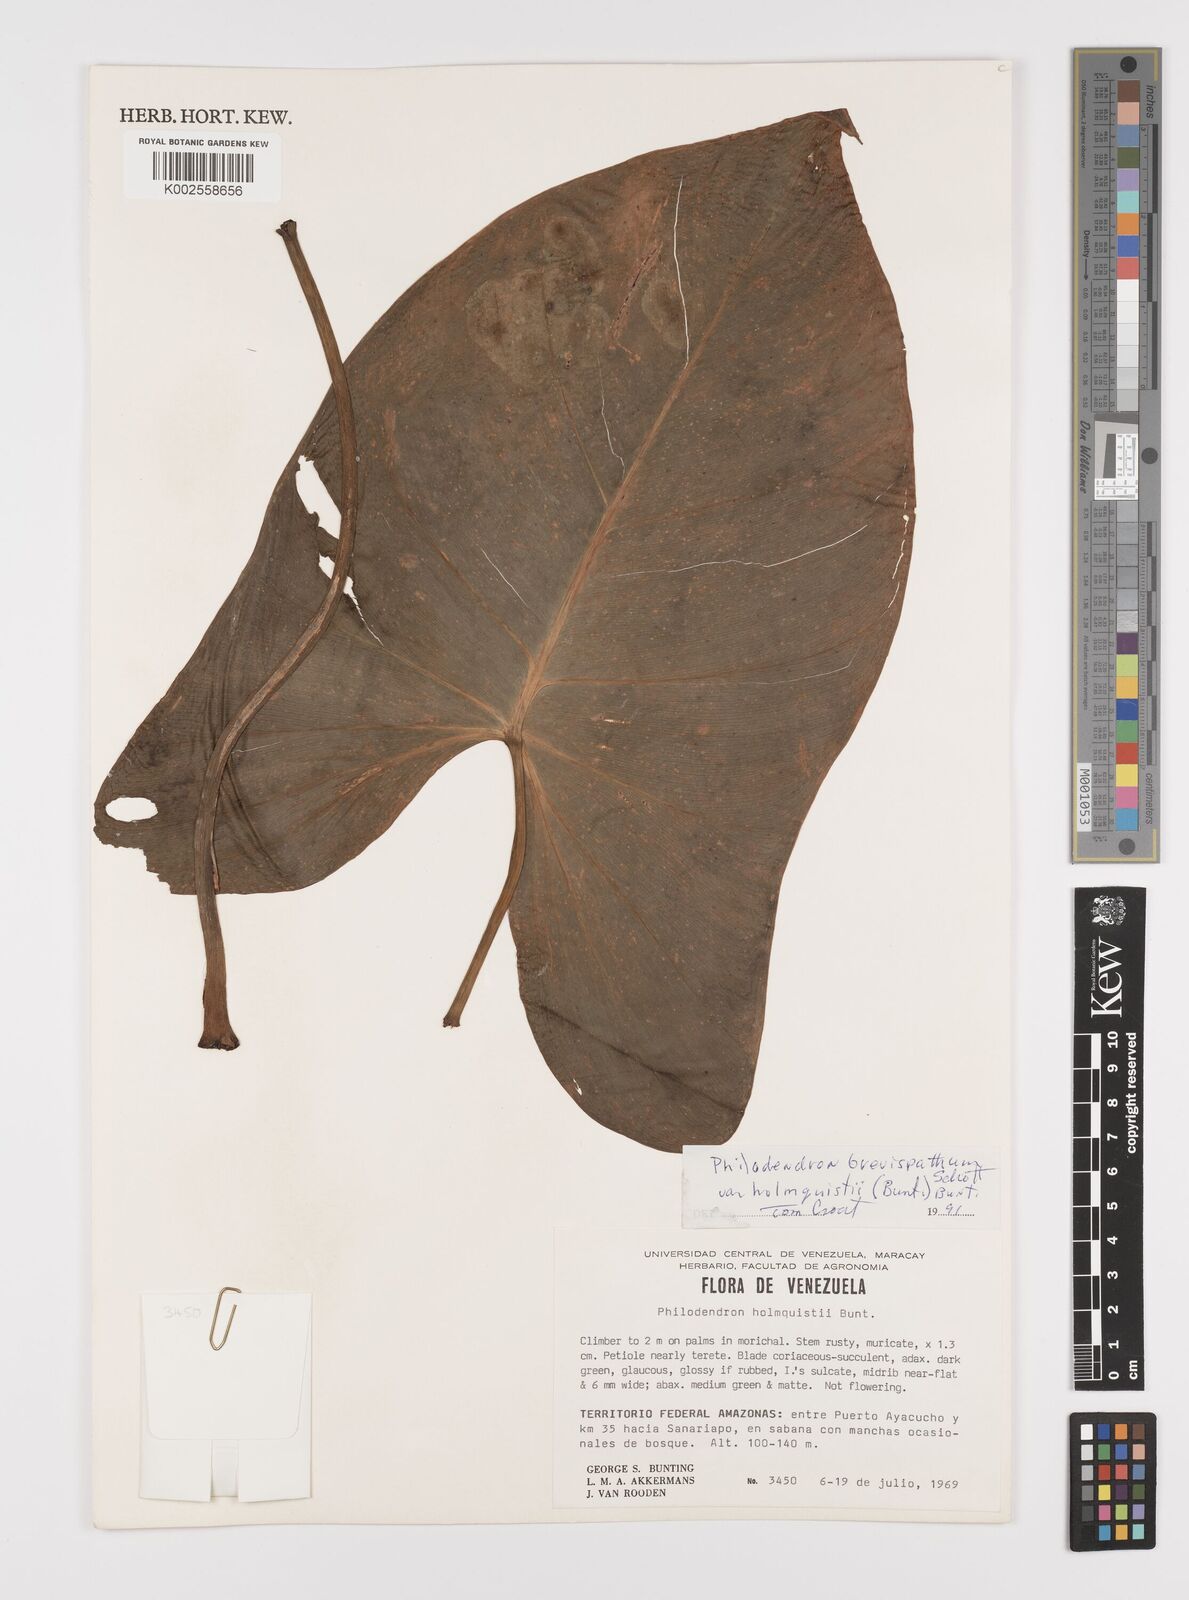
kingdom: Plantae
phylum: Tracheophyta
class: Liliopsida
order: Alismatales
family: Araceae
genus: Philodendron
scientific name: Philodendron brevispathum
